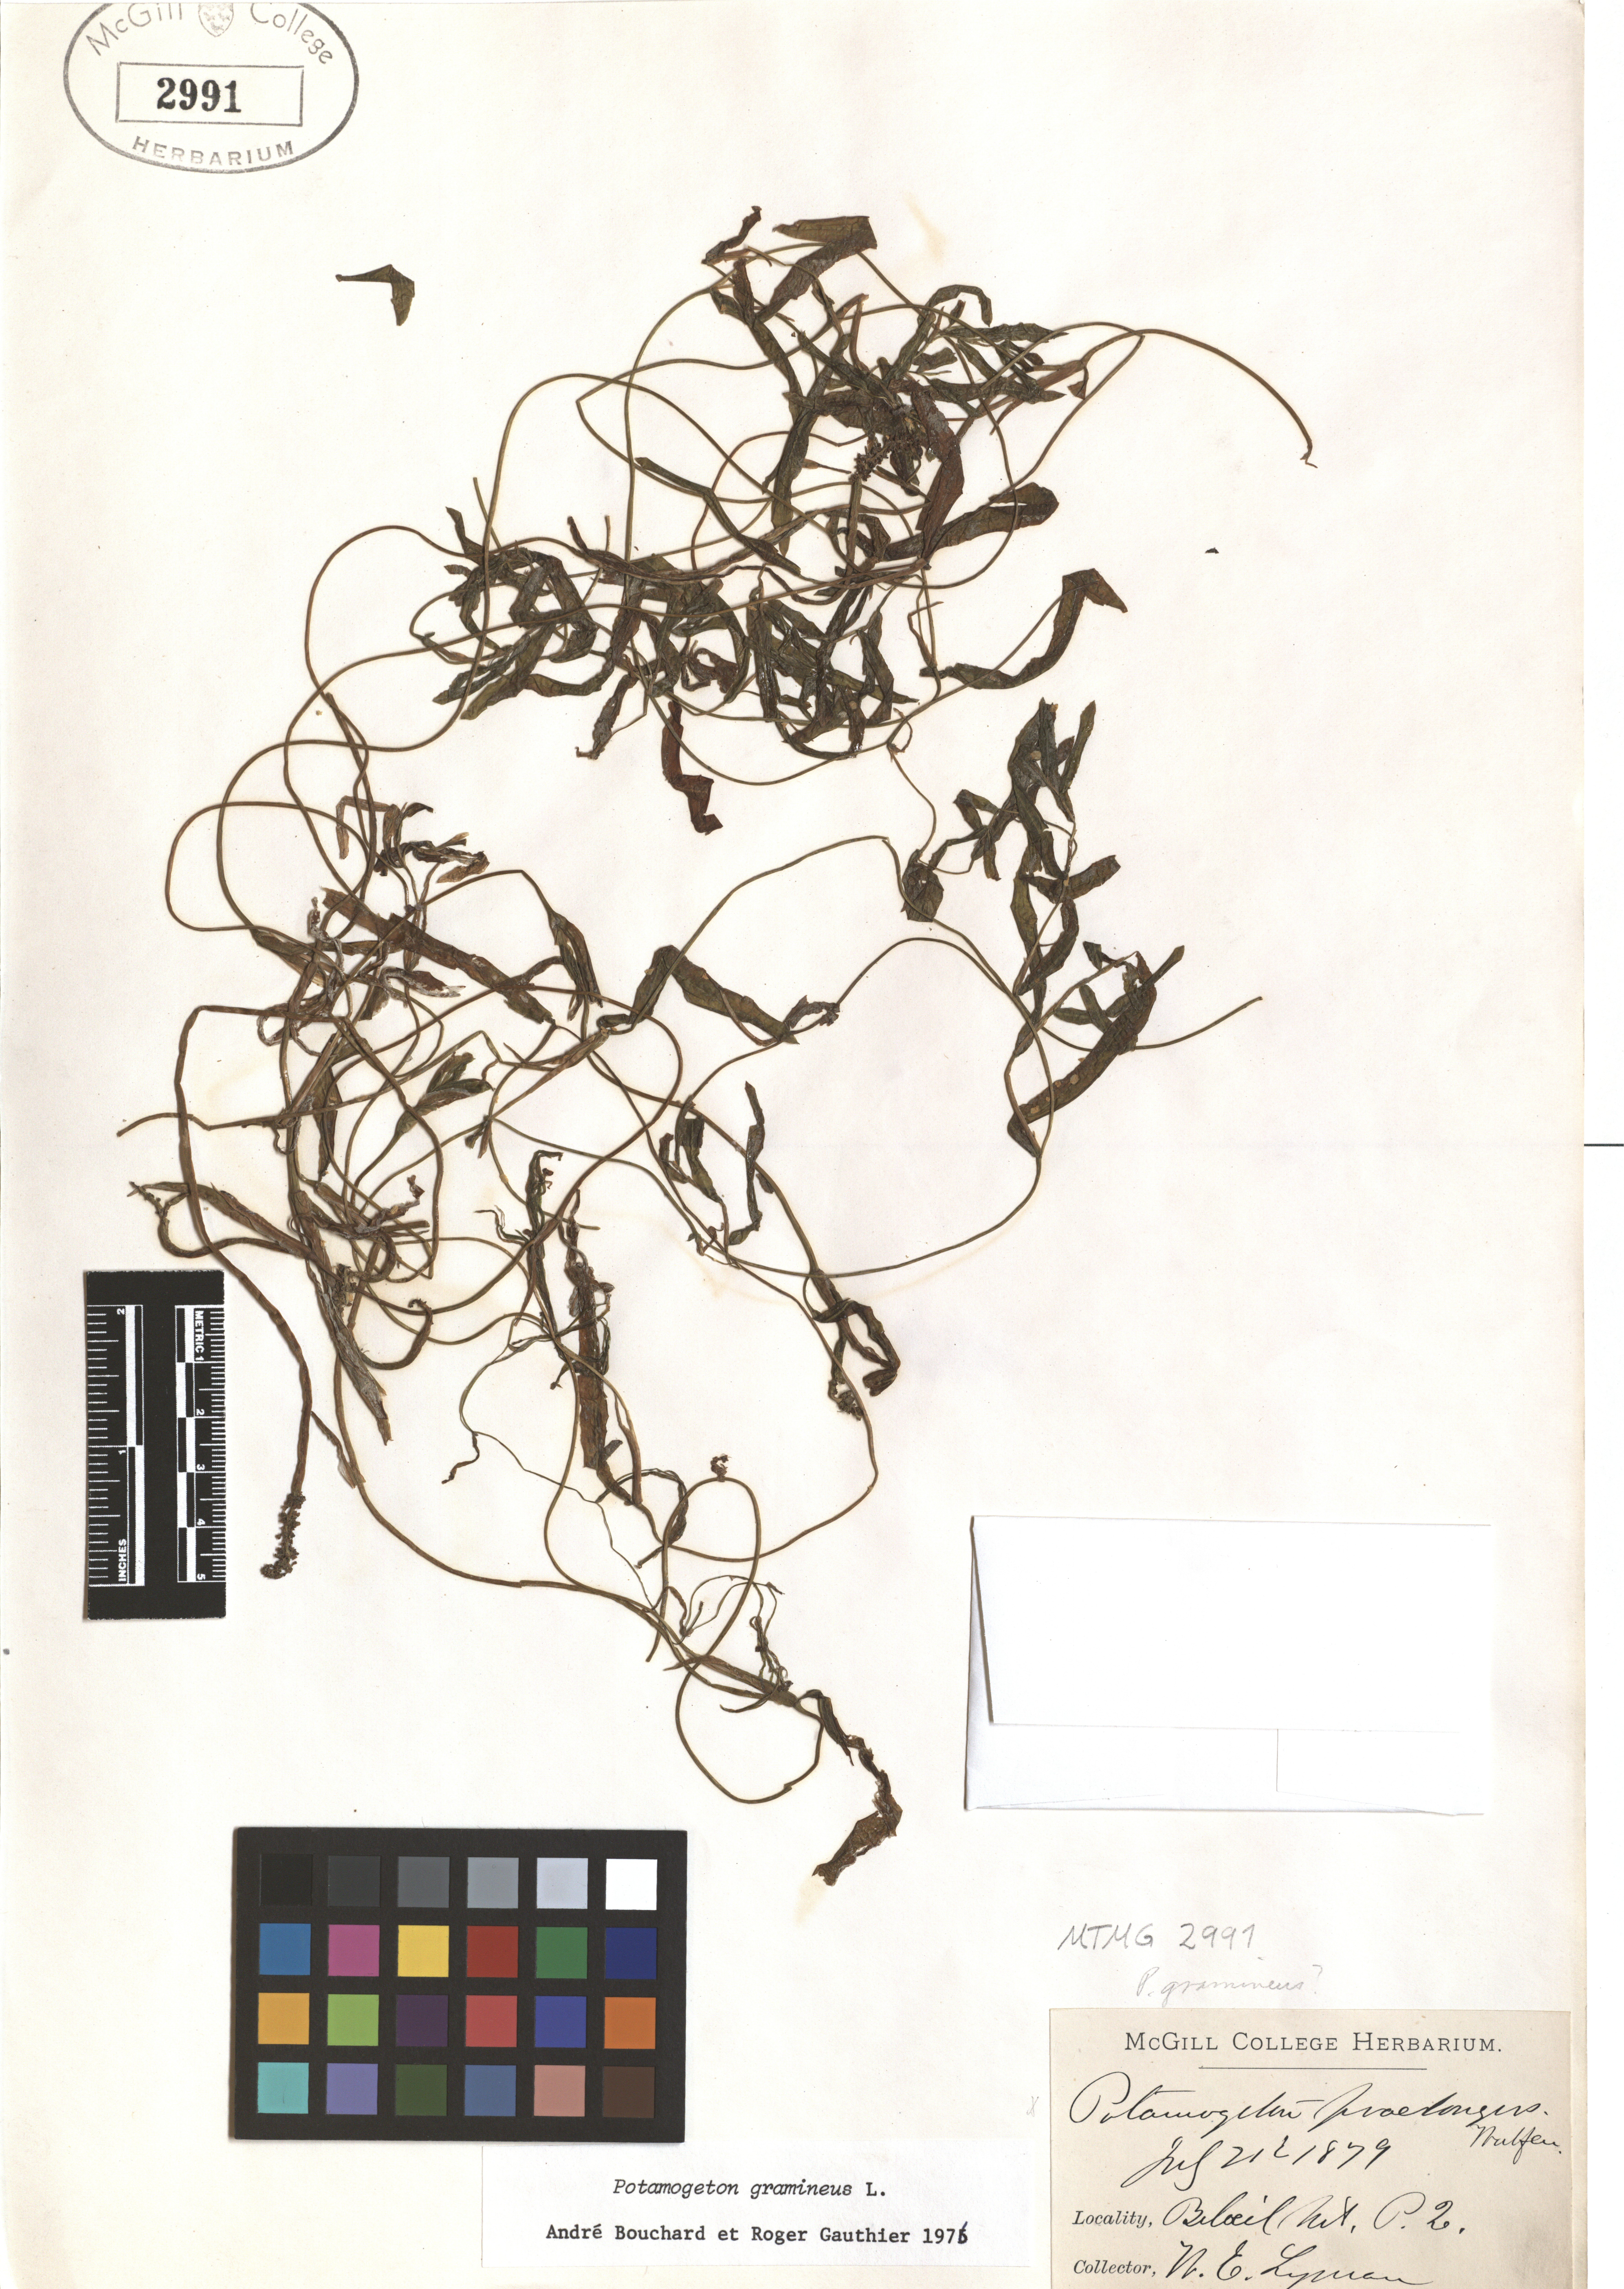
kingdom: Plantae
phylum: Tracheophyta
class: Liliopsida
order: Alismatales
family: Potamogetonaceae
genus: Potamogeton
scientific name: Potamogeton gramineus
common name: Various-leaved pondweed
